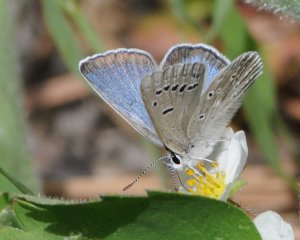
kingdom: Animalia
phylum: Arthropoda
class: Insecta
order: Lepidoptera
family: Lycaenidae
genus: Icaricia
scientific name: Icaricia icarioides
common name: Boisduval's Blue
